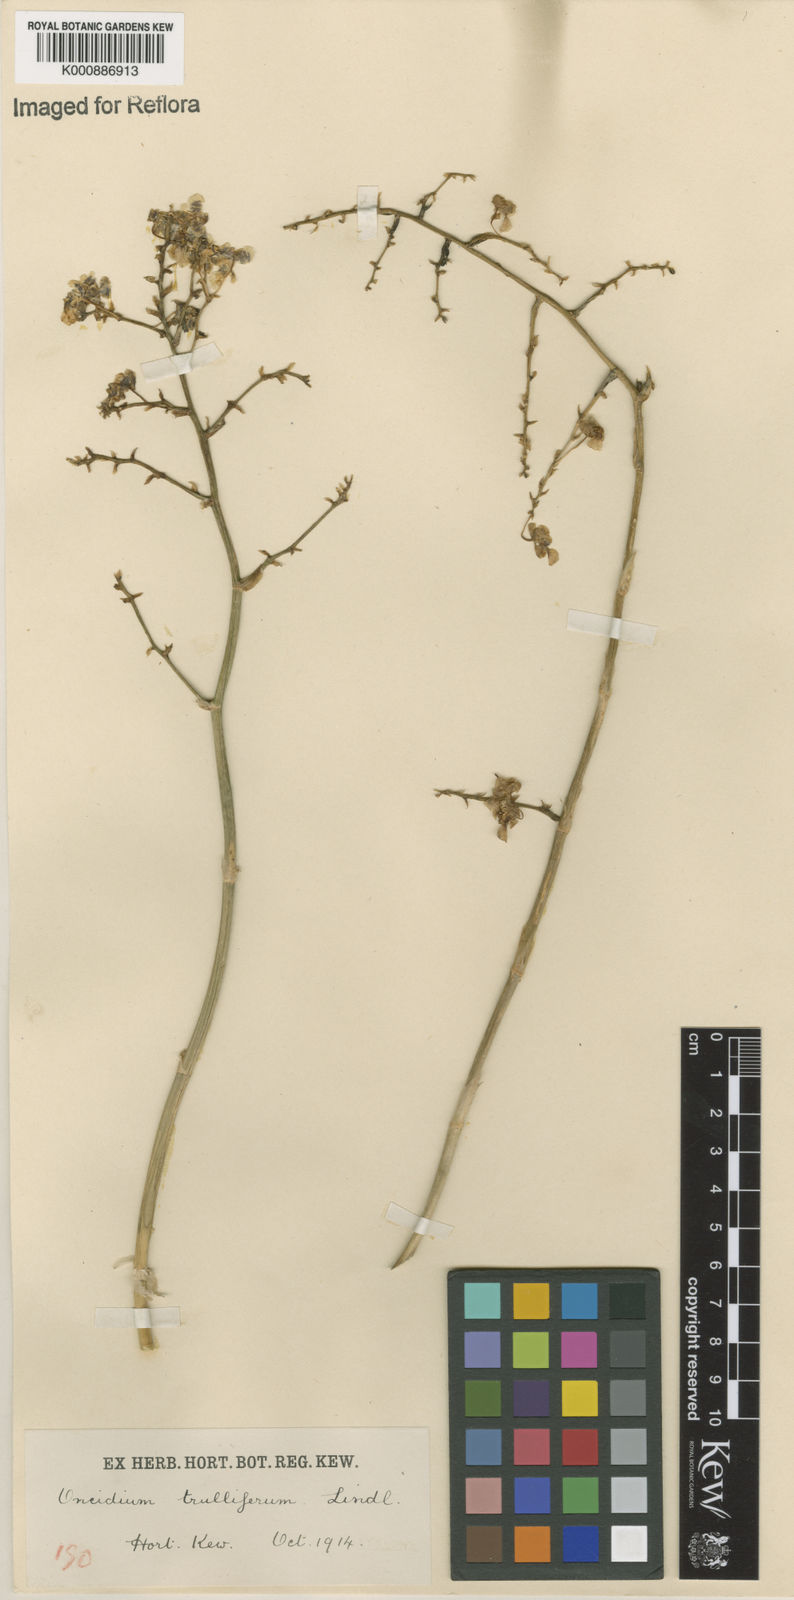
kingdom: Plantae
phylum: Tracheophyta
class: Liliopsida
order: Asparagales
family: Orchidaceae
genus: Gomesa
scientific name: Gomesa venusta
